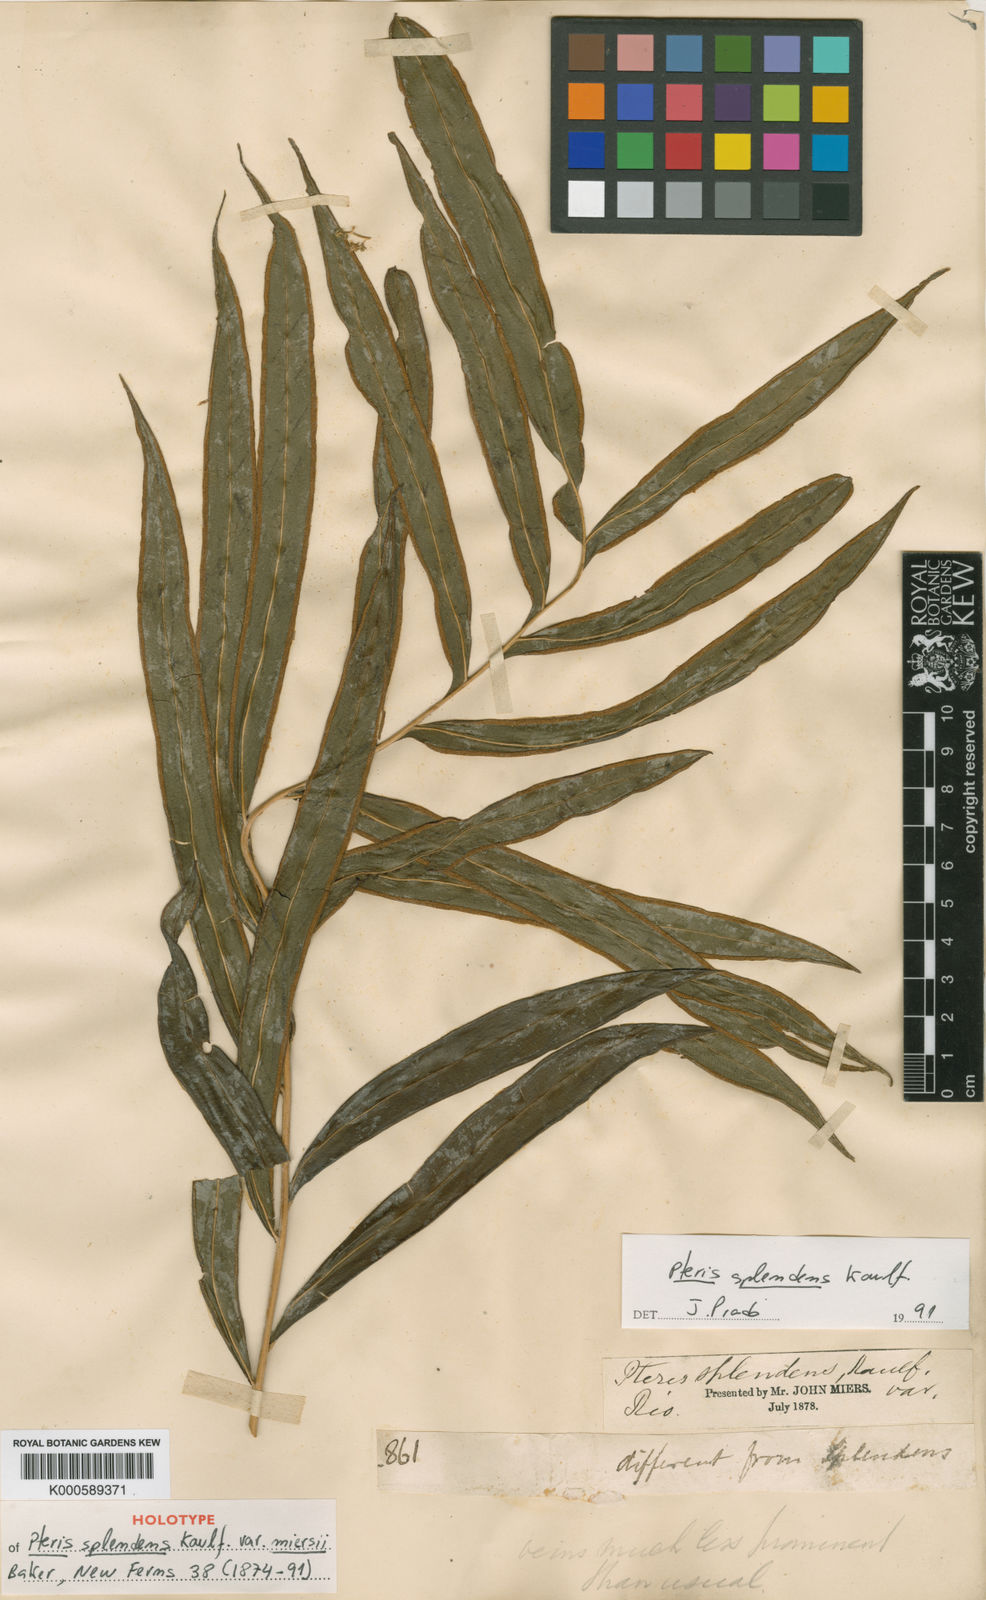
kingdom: Plantae
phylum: Tracheophyta
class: Polypodiopsida
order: Polypodiales
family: Pteridaceae
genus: Pteris
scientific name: Pteris splendens
